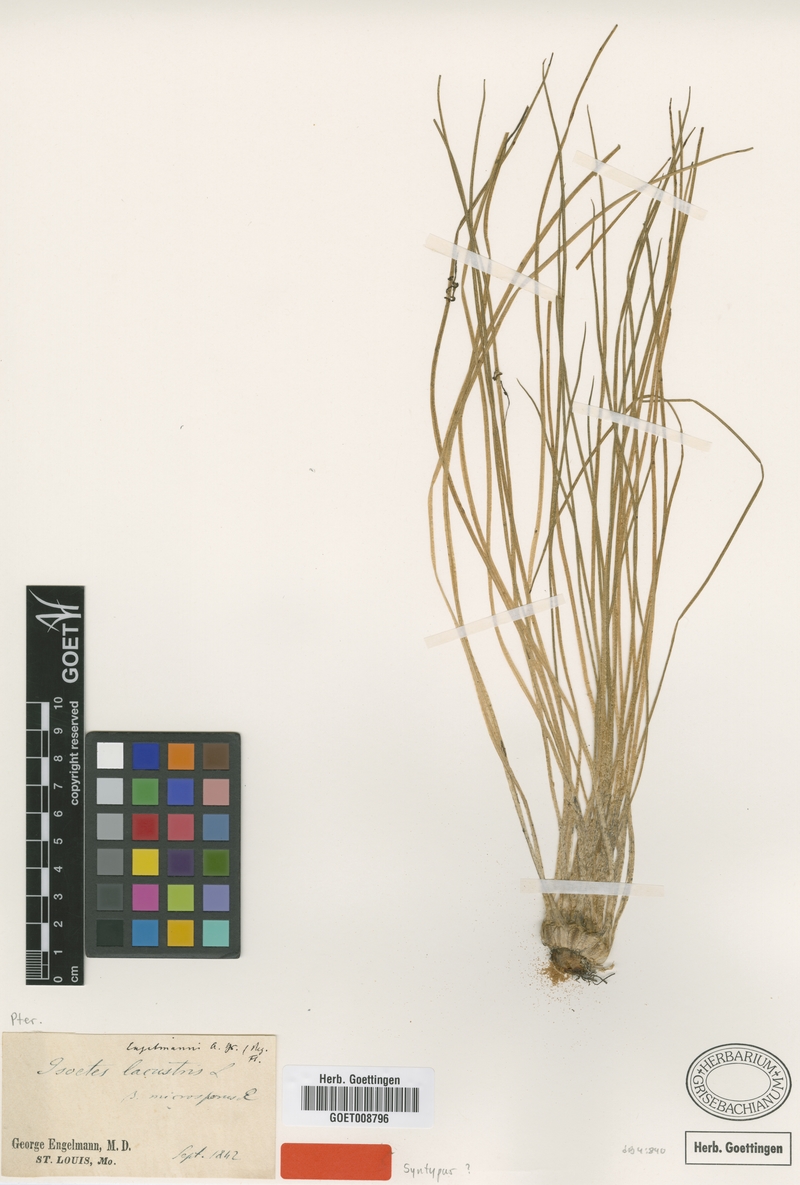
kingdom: Plantae
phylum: Tracheophyta
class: Lycopodiopsida
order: Isoetales
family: Isoetaceae
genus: Isoetes
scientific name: Isoetes engelmannii
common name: Engelmann's quillwort
